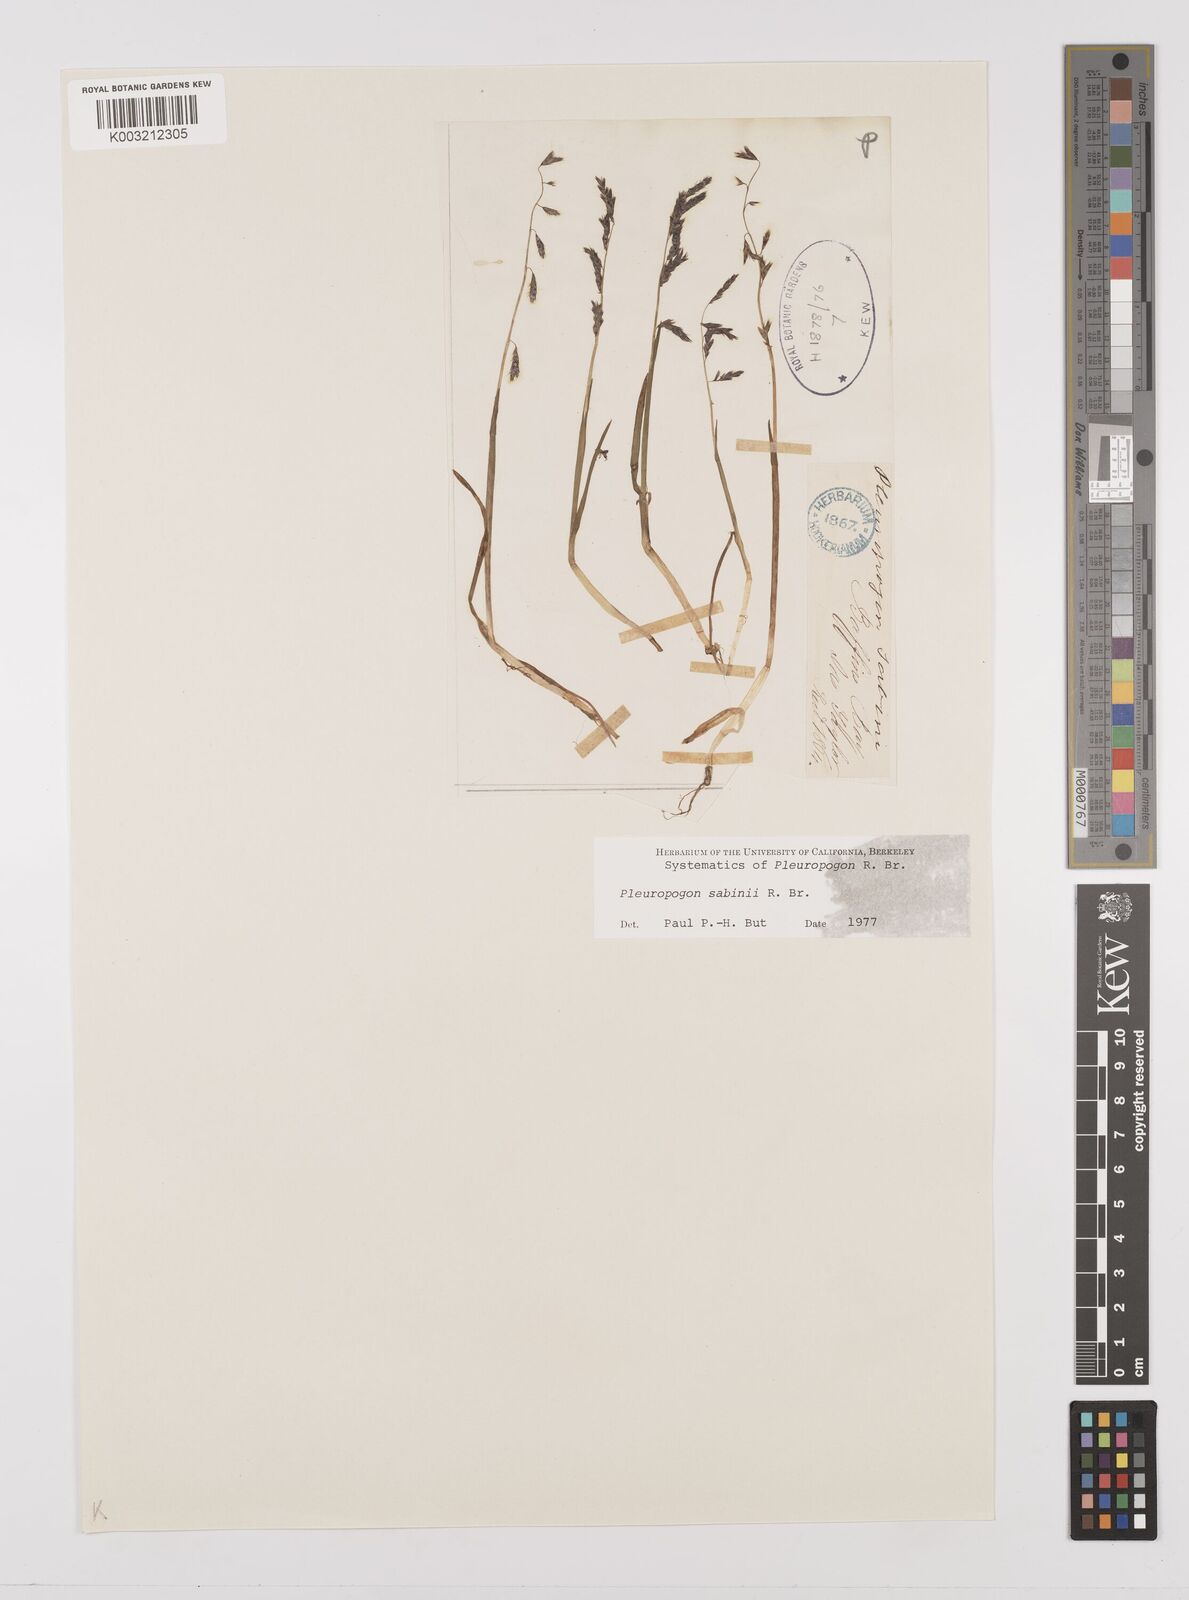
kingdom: Plantae
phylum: Tracheophyta
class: Liliopsida
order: Poales
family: Poaceae
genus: Pleuropogon
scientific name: Pleuropogon sabinei
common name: Sabine's false semaphoregrass
